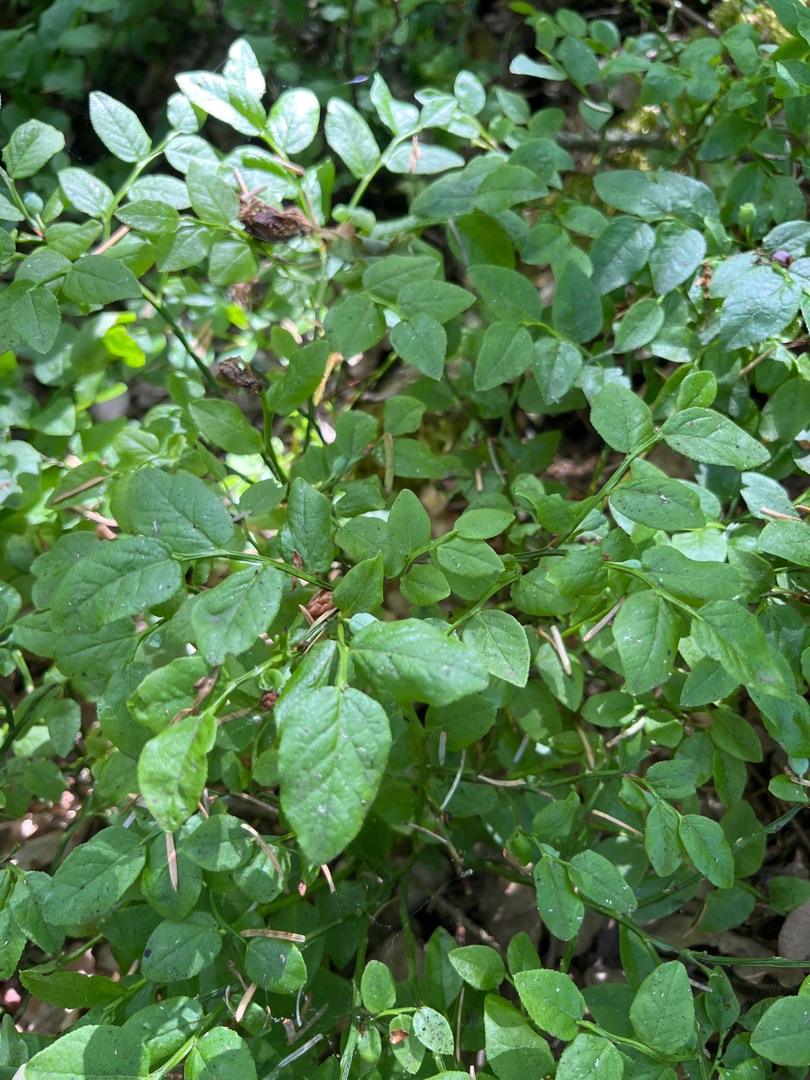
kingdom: Plantae
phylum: Tracheophyta
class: Magnoliopsida
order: Ericales
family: Ericaceae
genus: Vaccinium
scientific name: Vaccinium myrtillus
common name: Blåbær
